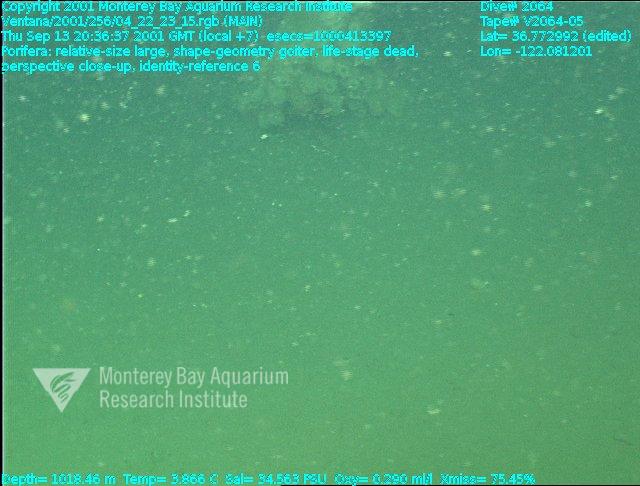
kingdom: Animalia
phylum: Porifera
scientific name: Porifera
